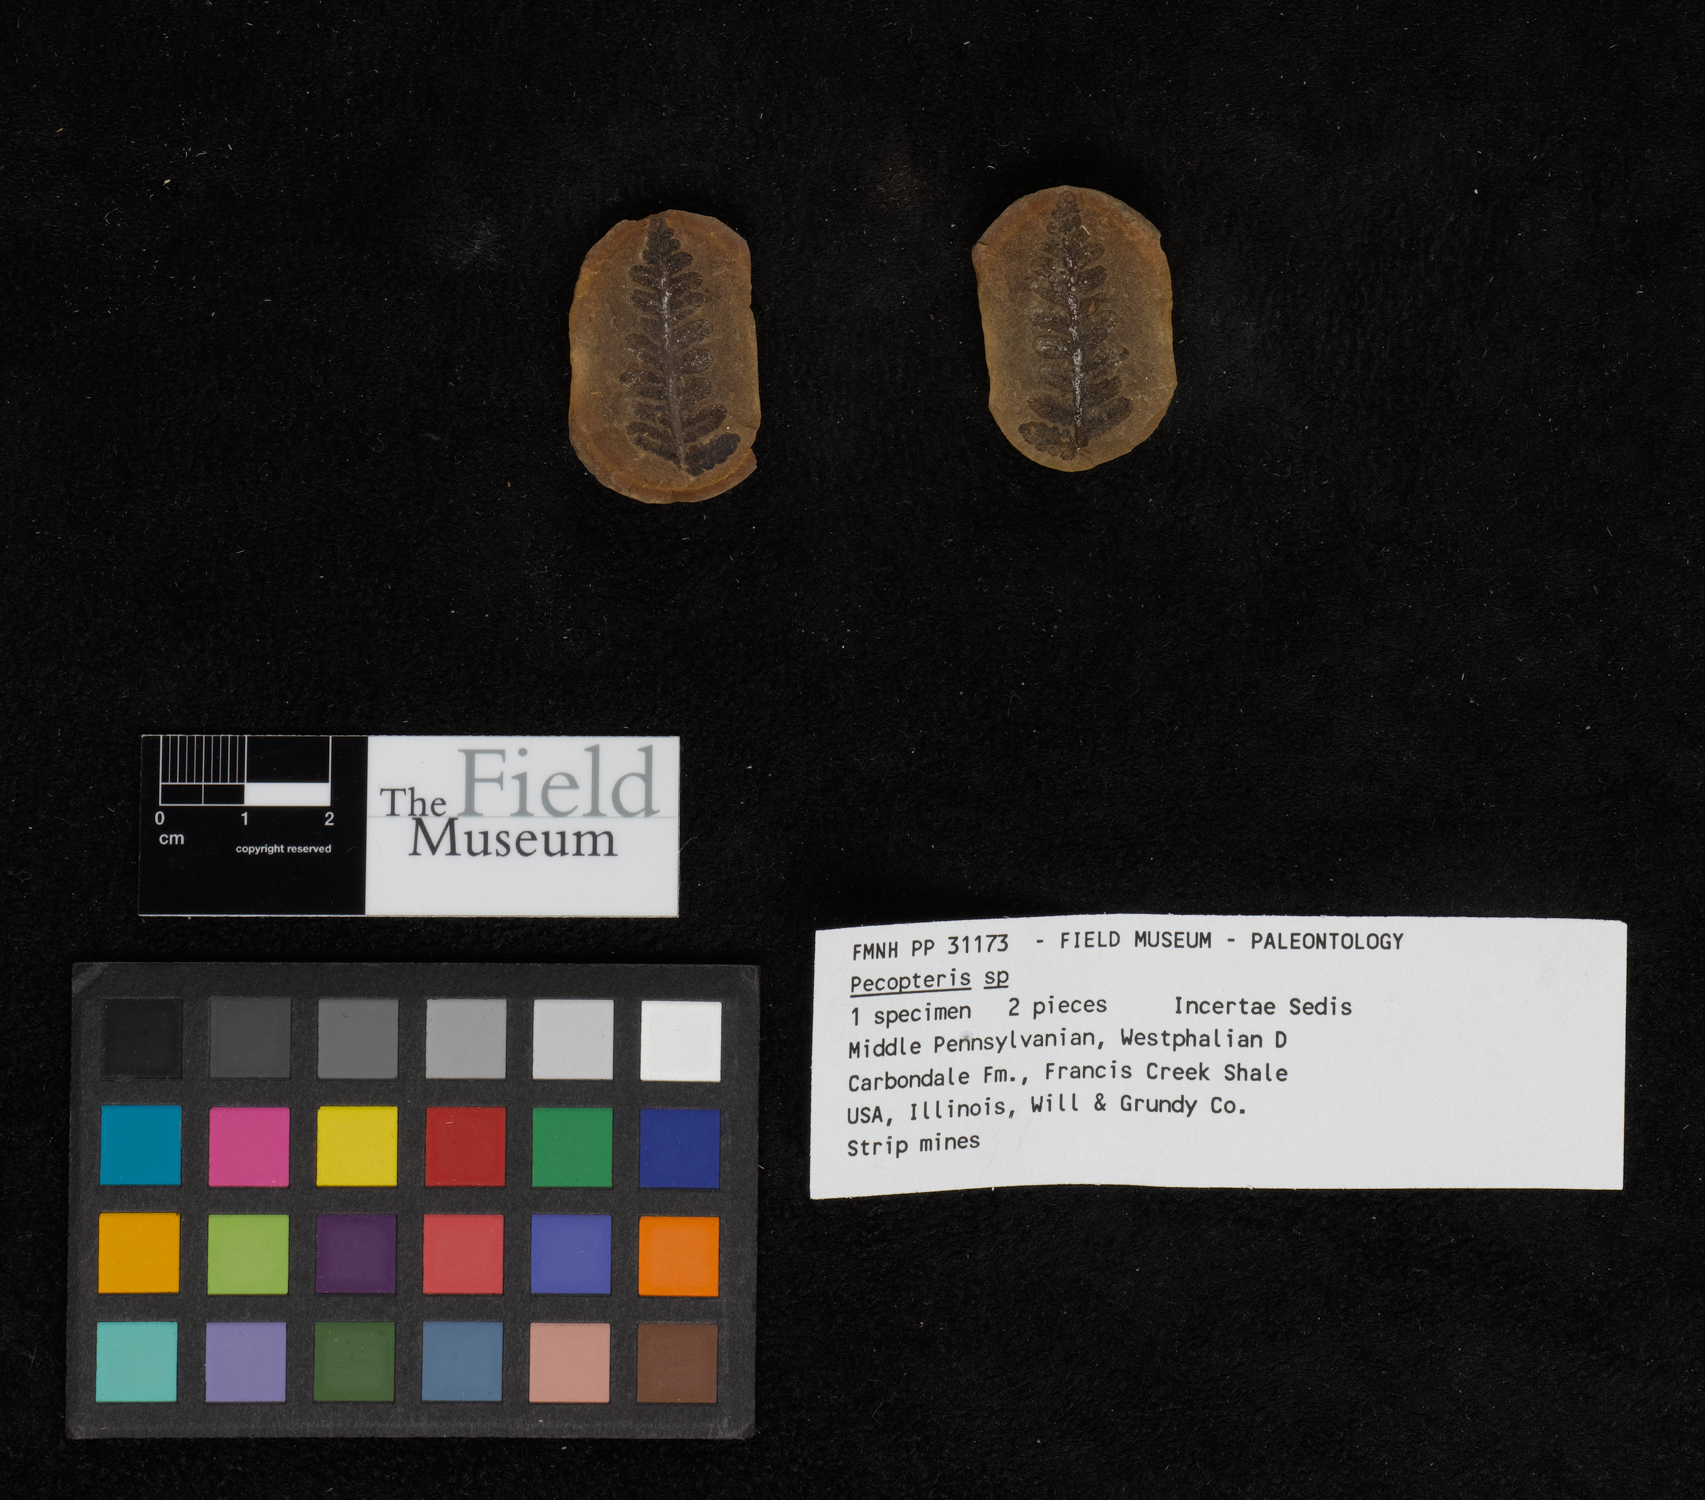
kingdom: Plantae
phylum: Tracheophyta
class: Polypodiopsida
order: Marattiales
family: Asterothecaceae
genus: Pecopteris
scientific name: Pecopteris
